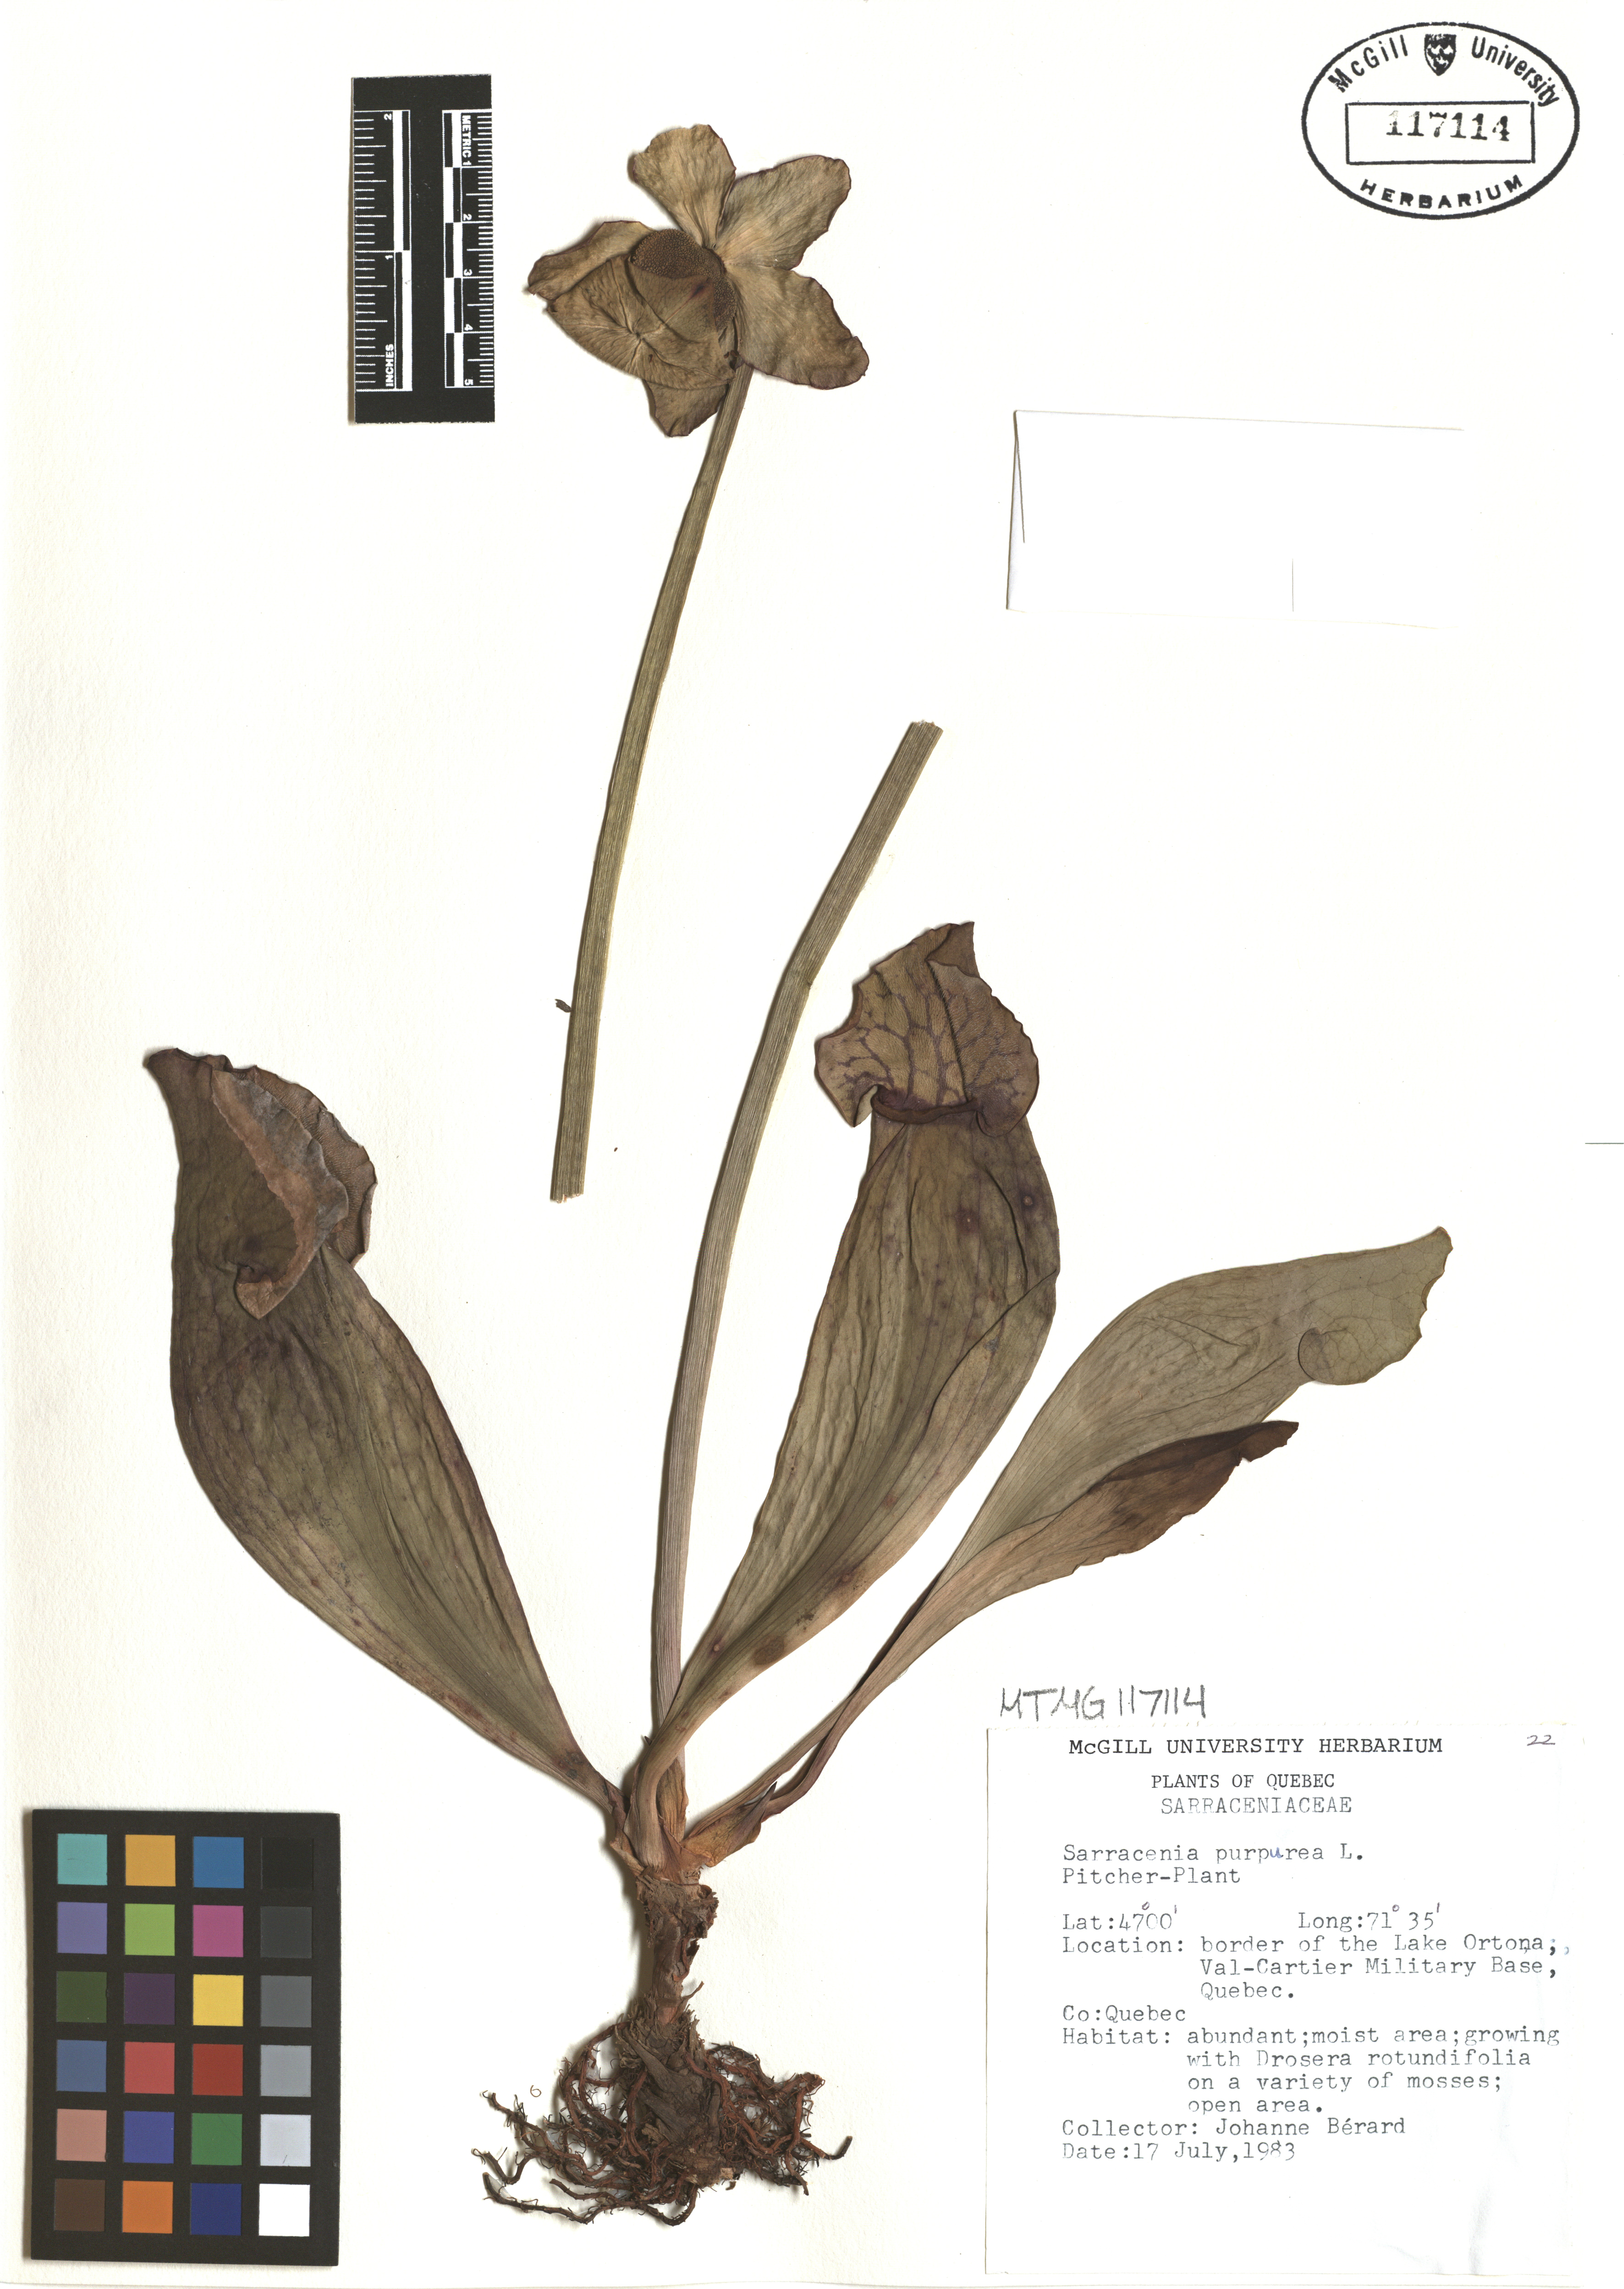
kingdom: Plantae
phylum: Tracheophyta
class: Magnoliopsida
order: Ericales
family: Sarraceniaceae
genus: Sarracenia
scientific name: Sarracenia purpurea
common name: Pitcherplant
